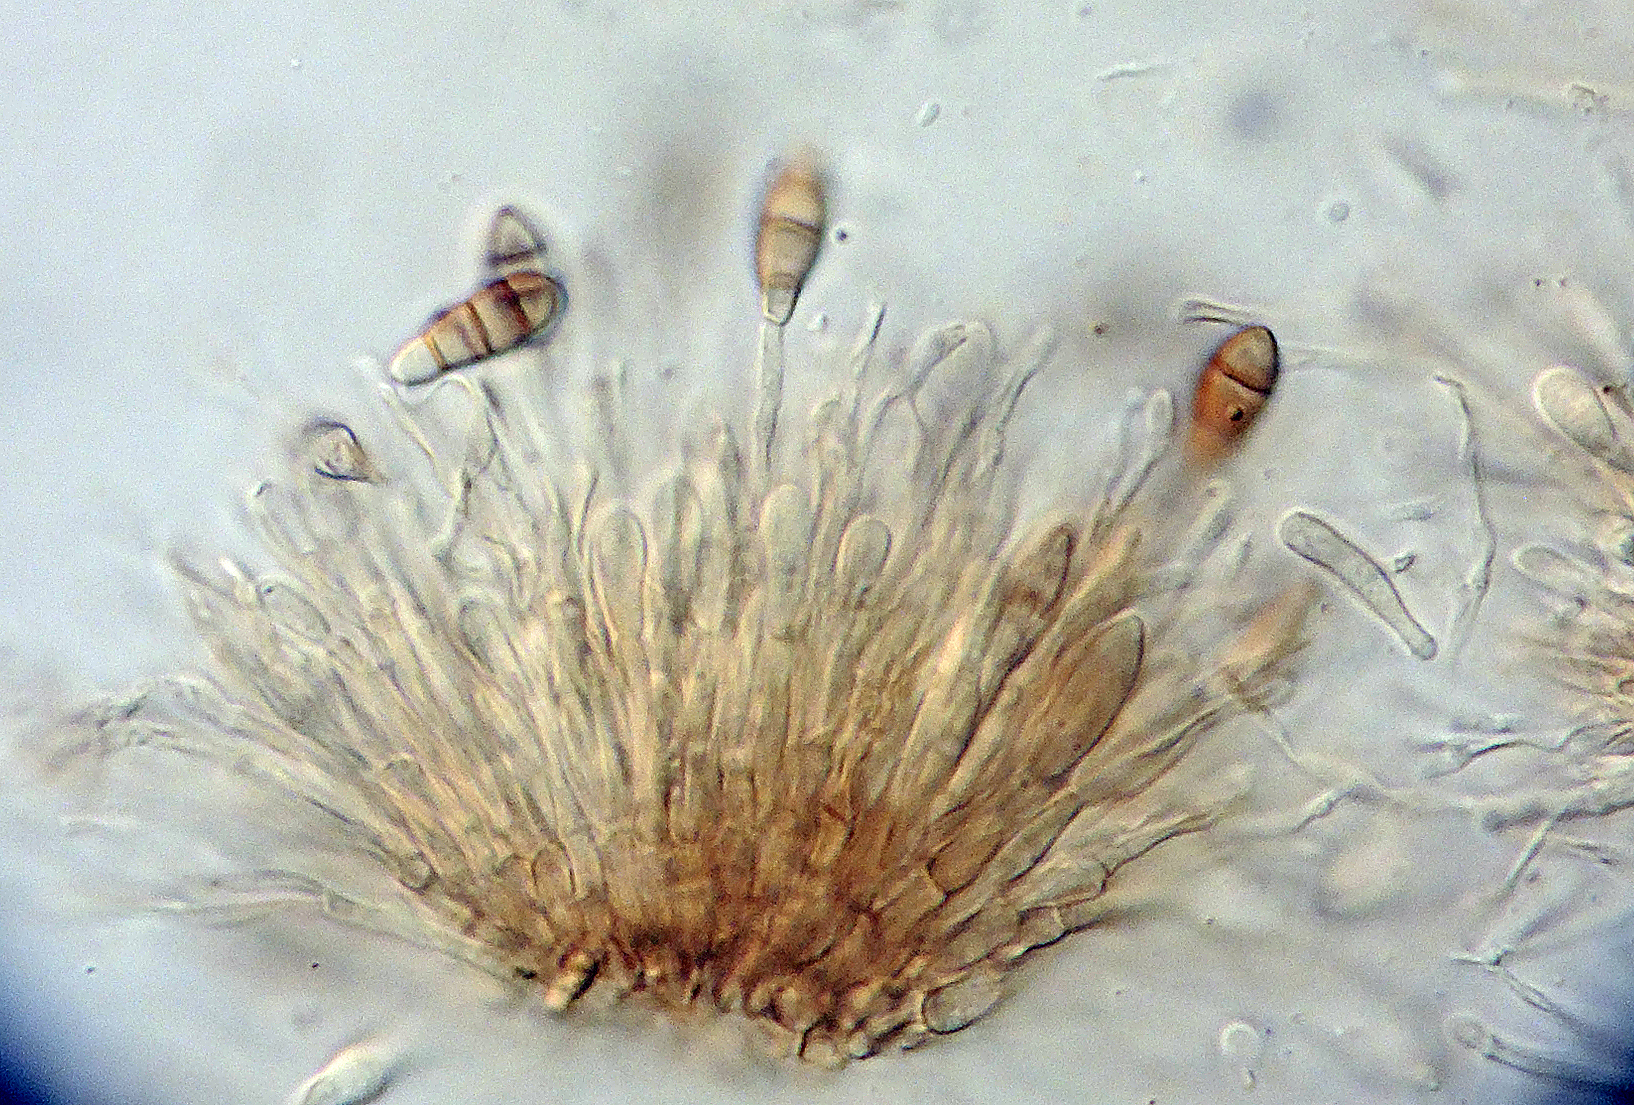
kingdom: Fungi
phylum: Ascomycota
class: Sordariomycetes
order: Amphisphaeriales
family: Sporocadaceae
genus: Seimatosporium
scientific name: Seimatosporium vaccinii
